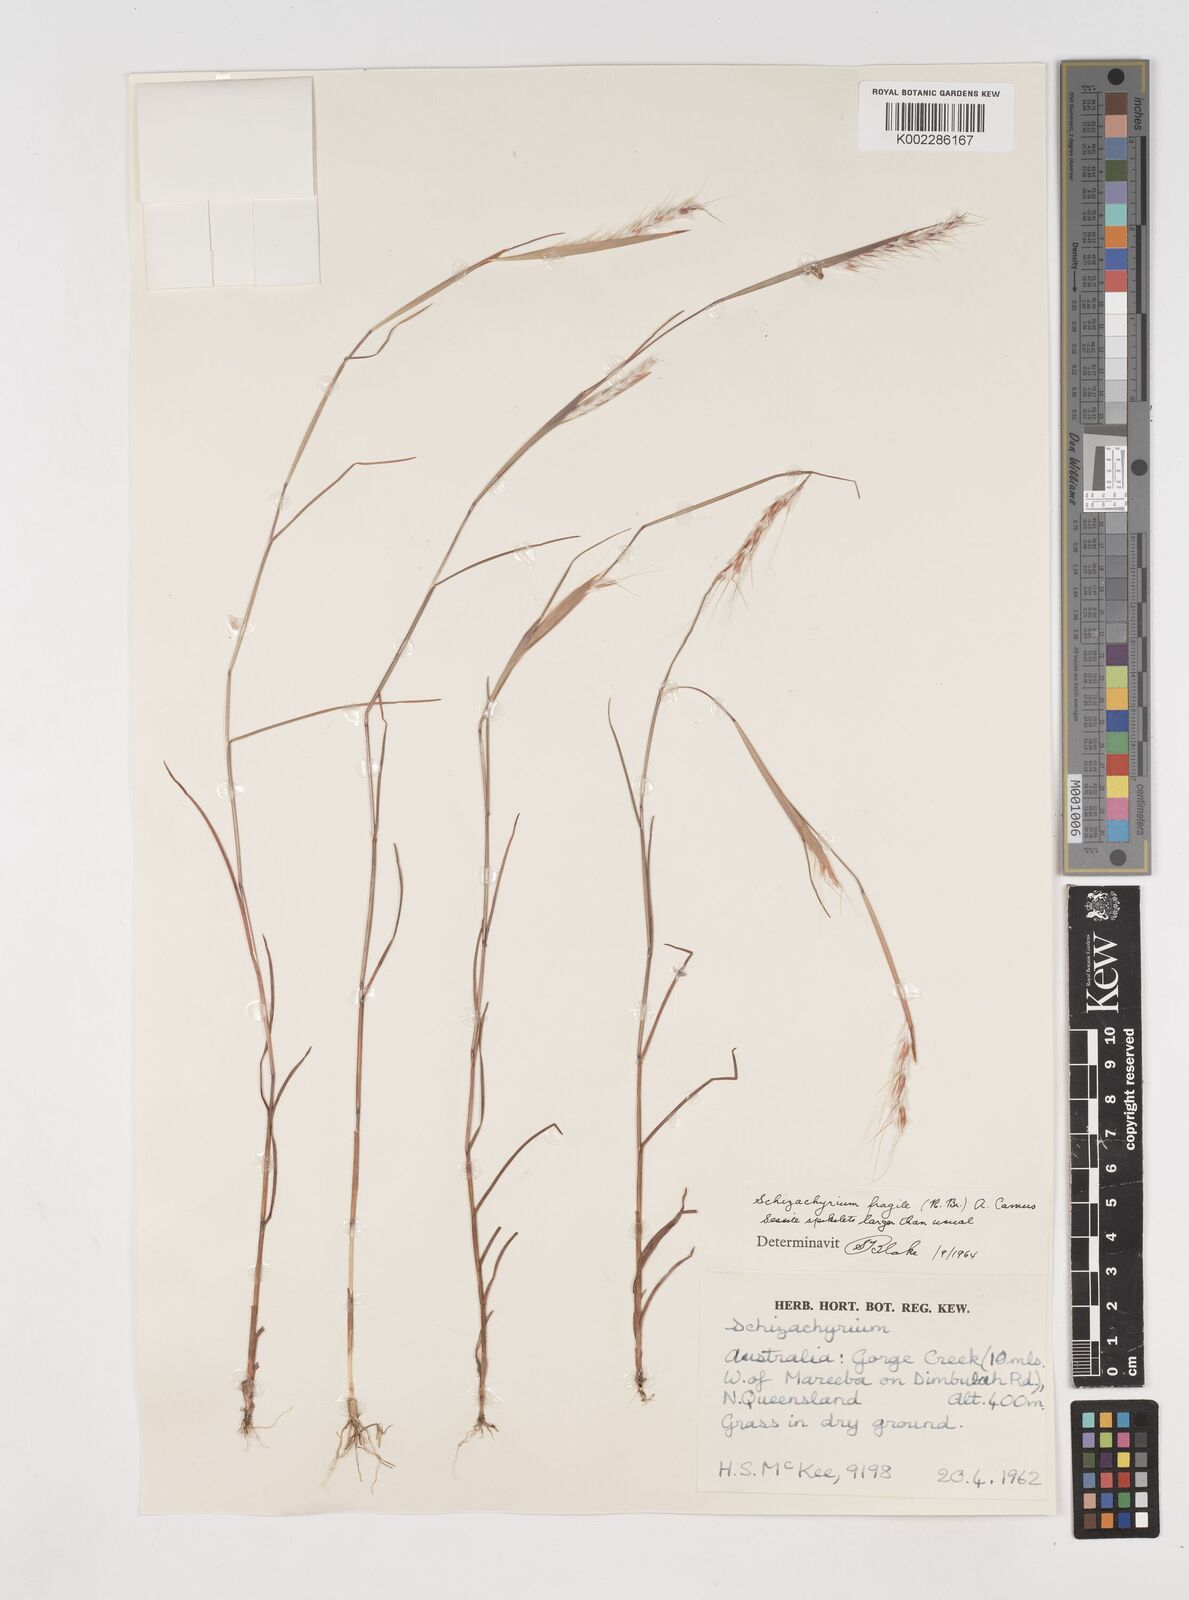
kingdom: Plantae
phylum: Tracheophyta
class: Liliopsida
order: Poales
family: Poaceae
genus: Schizachyrium
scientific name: Schizachyrium fragile
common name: Red spathe grass
